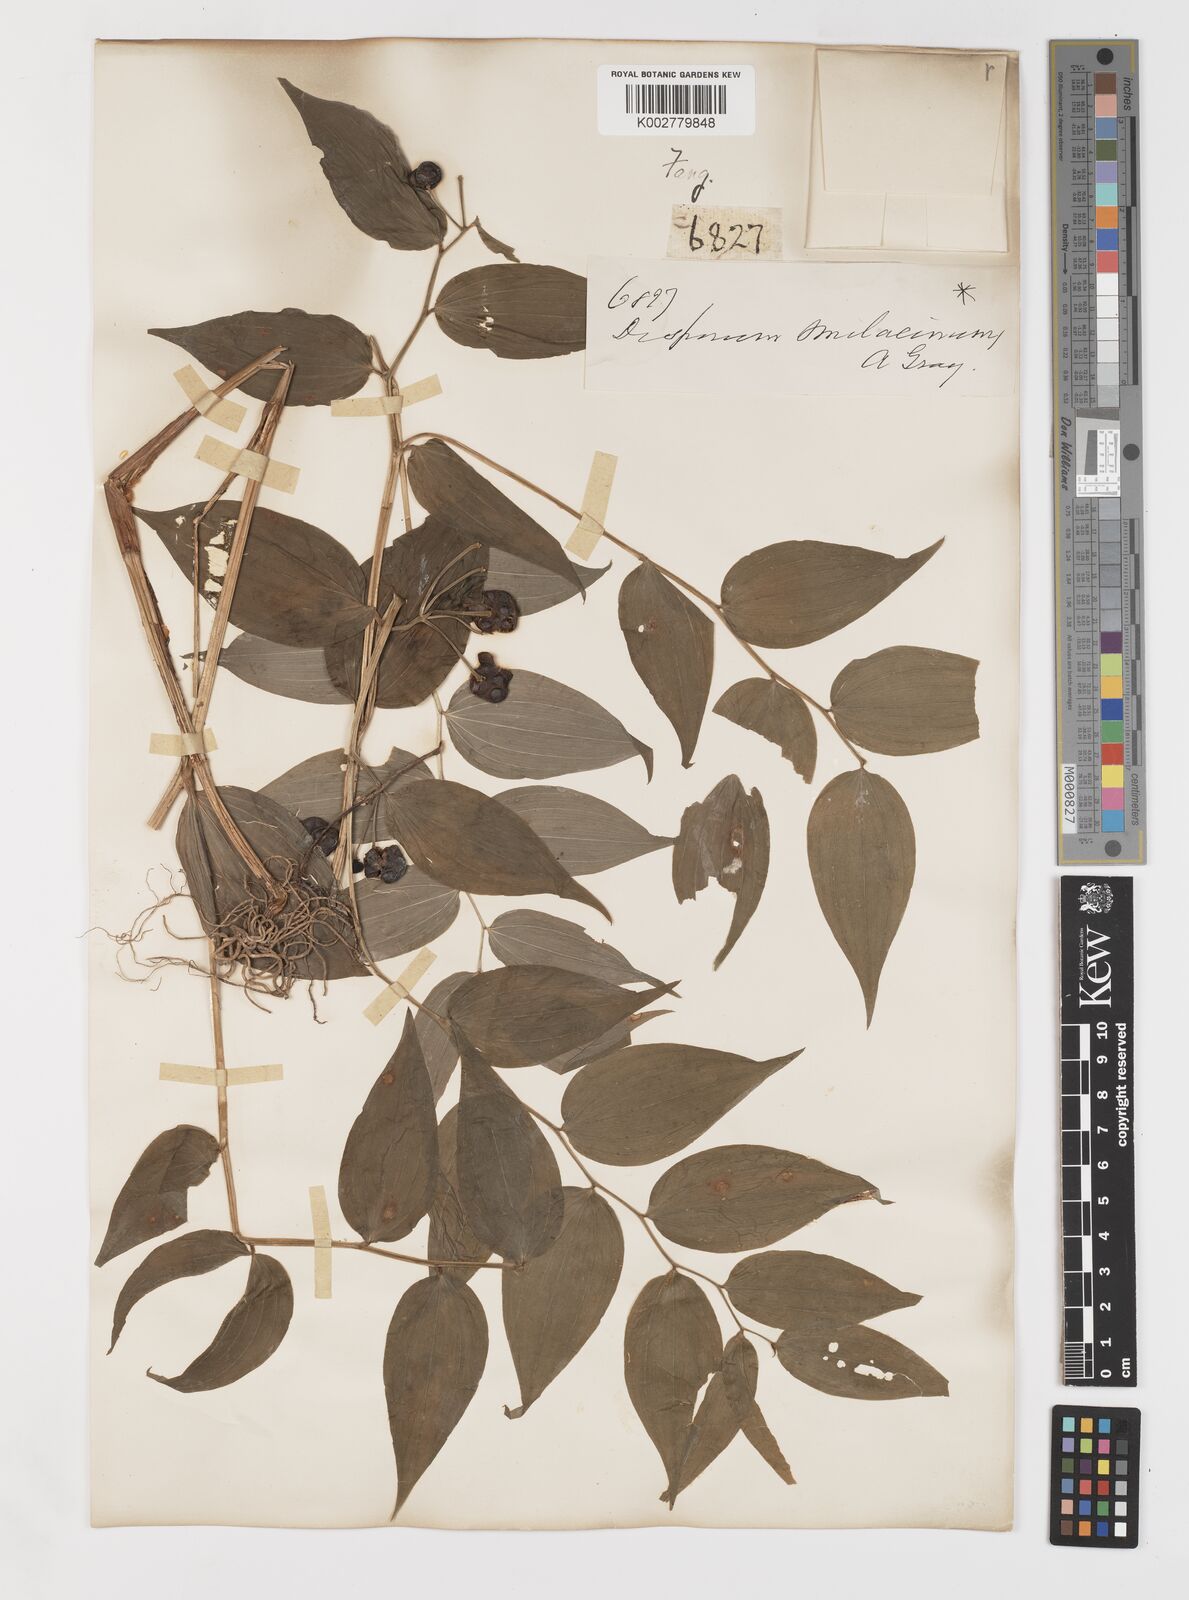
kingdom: Plantae
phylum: Tracheophyta
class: Liliopsida
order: Liliales
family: Colchicaceae
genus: Disporum
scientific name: Disporum sessile
